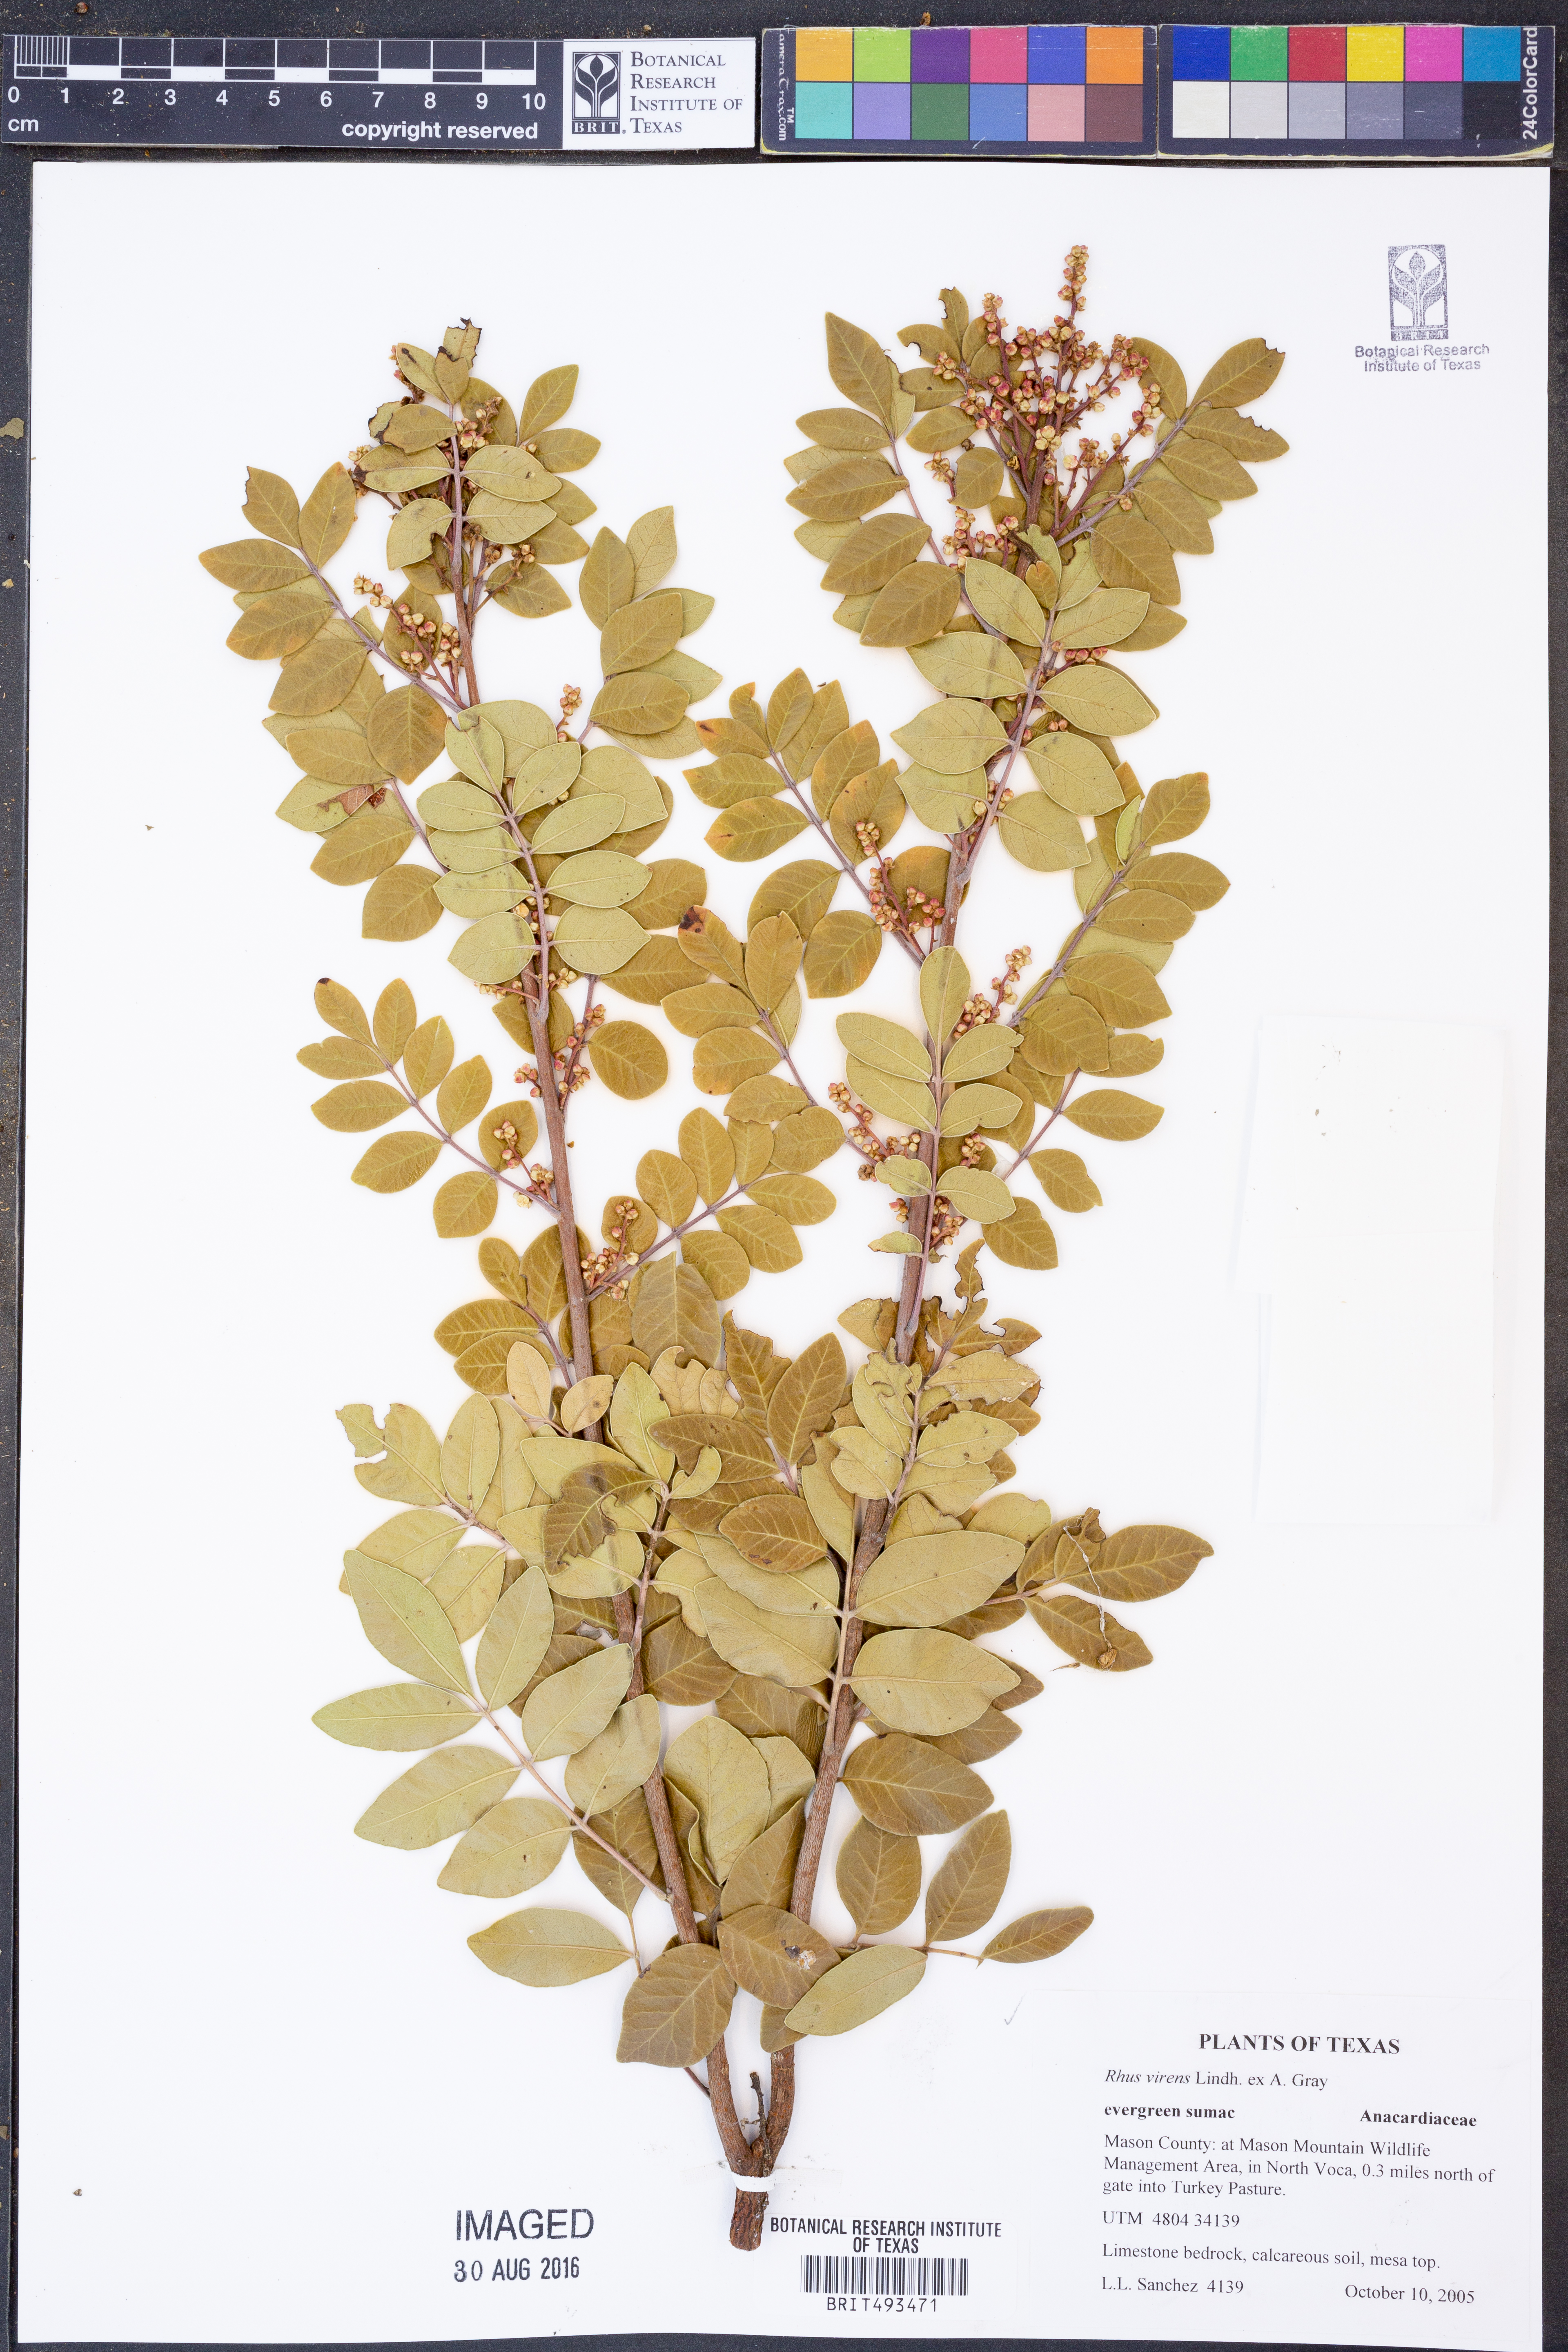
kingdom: Plantae
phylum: Tracheophyta
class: Magnoliopsida
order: Sapindales
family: Anacardiaceae
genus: Rhus
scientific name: Rhus virens
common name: Evergreen sumac
